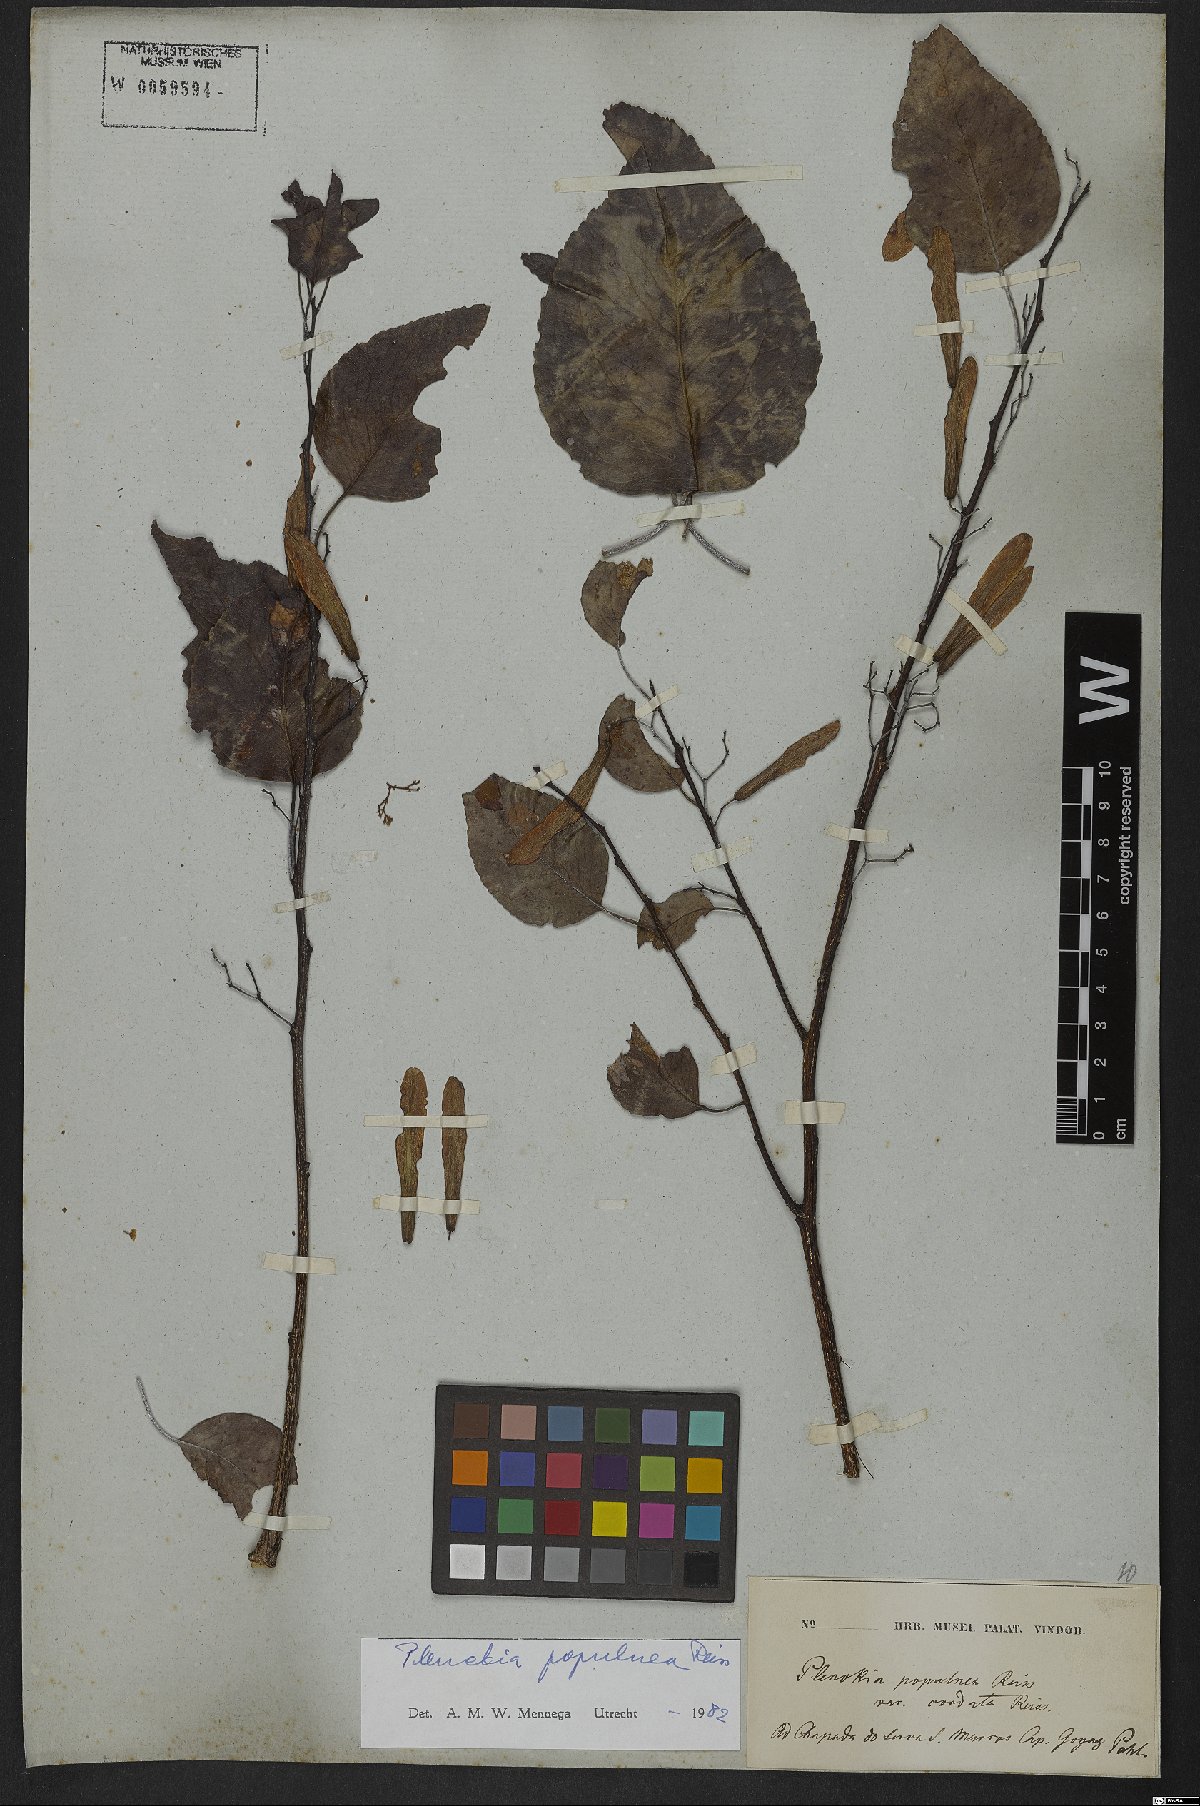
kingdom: Plantae
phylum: Tracheophyta
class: Magnoliopsida
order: Celastrales
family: Celastraceae
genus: Plenckia
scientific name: Plenckia populnea
